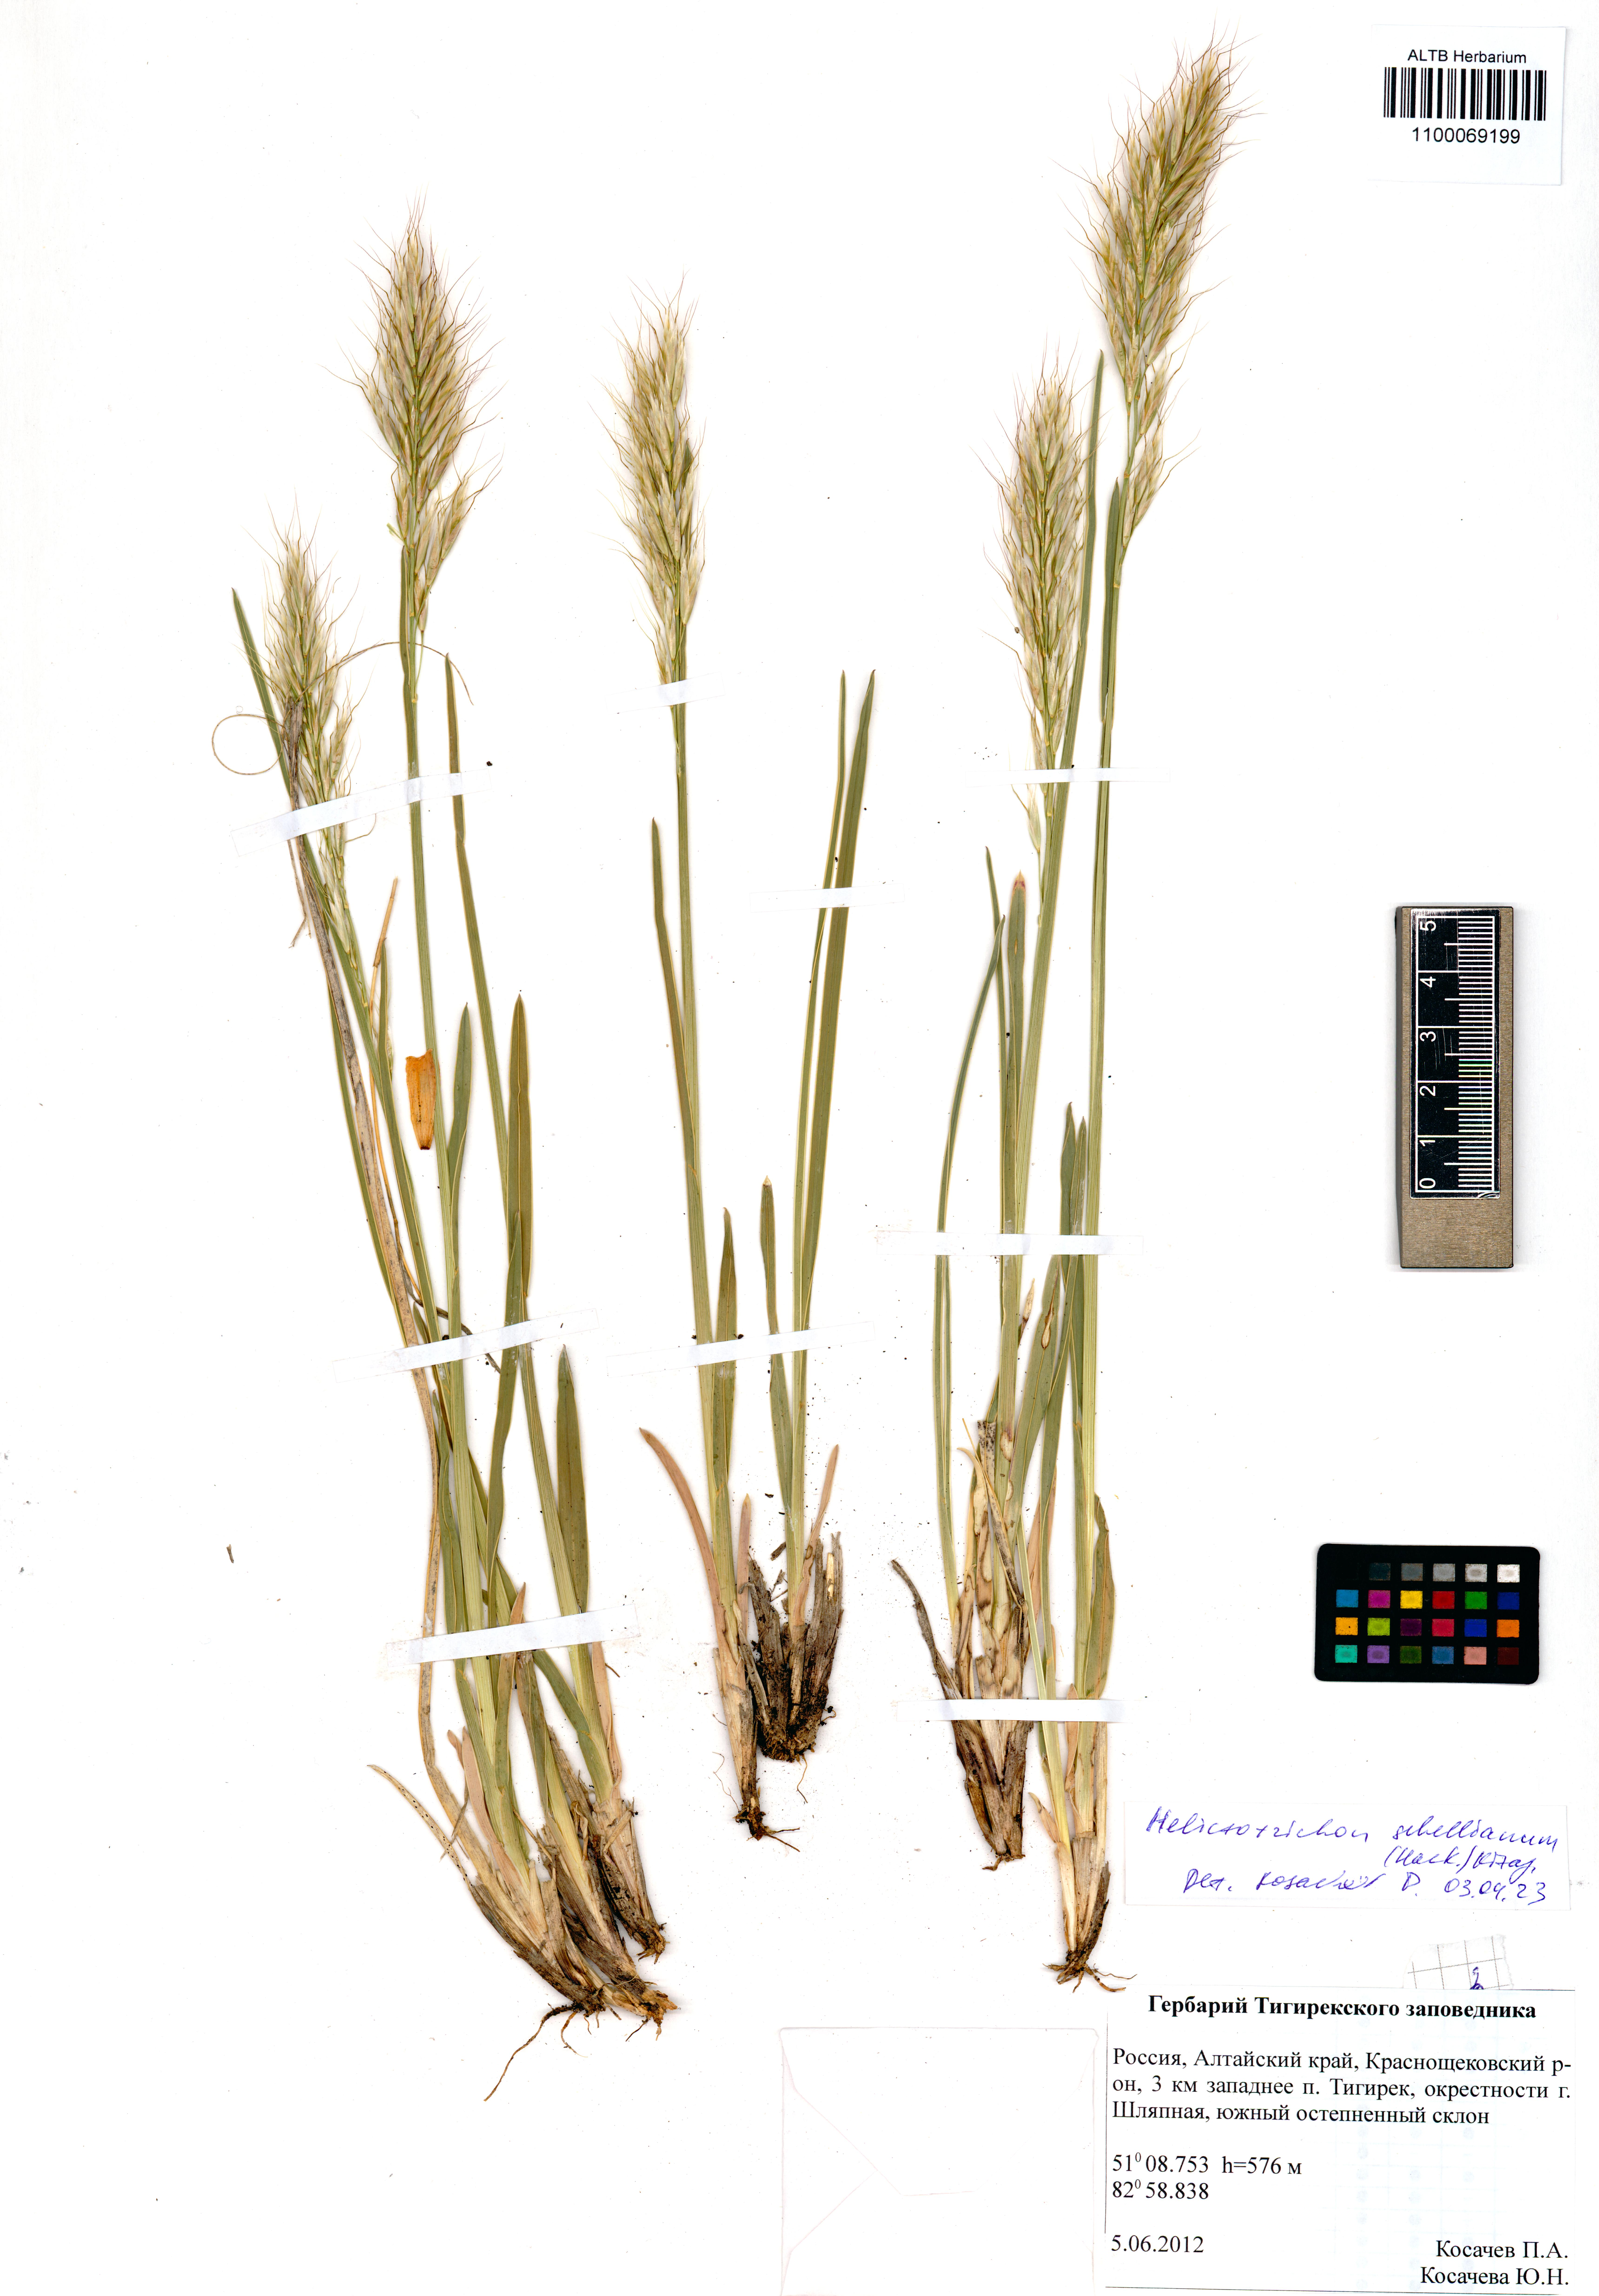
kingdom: Plantae
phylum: Tracheophyta
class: Liliopsida
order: Poales
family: Poaceae
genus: Helictochloa
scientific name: Helictochloa hookeri
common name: Hooker's alpine oatgrass
